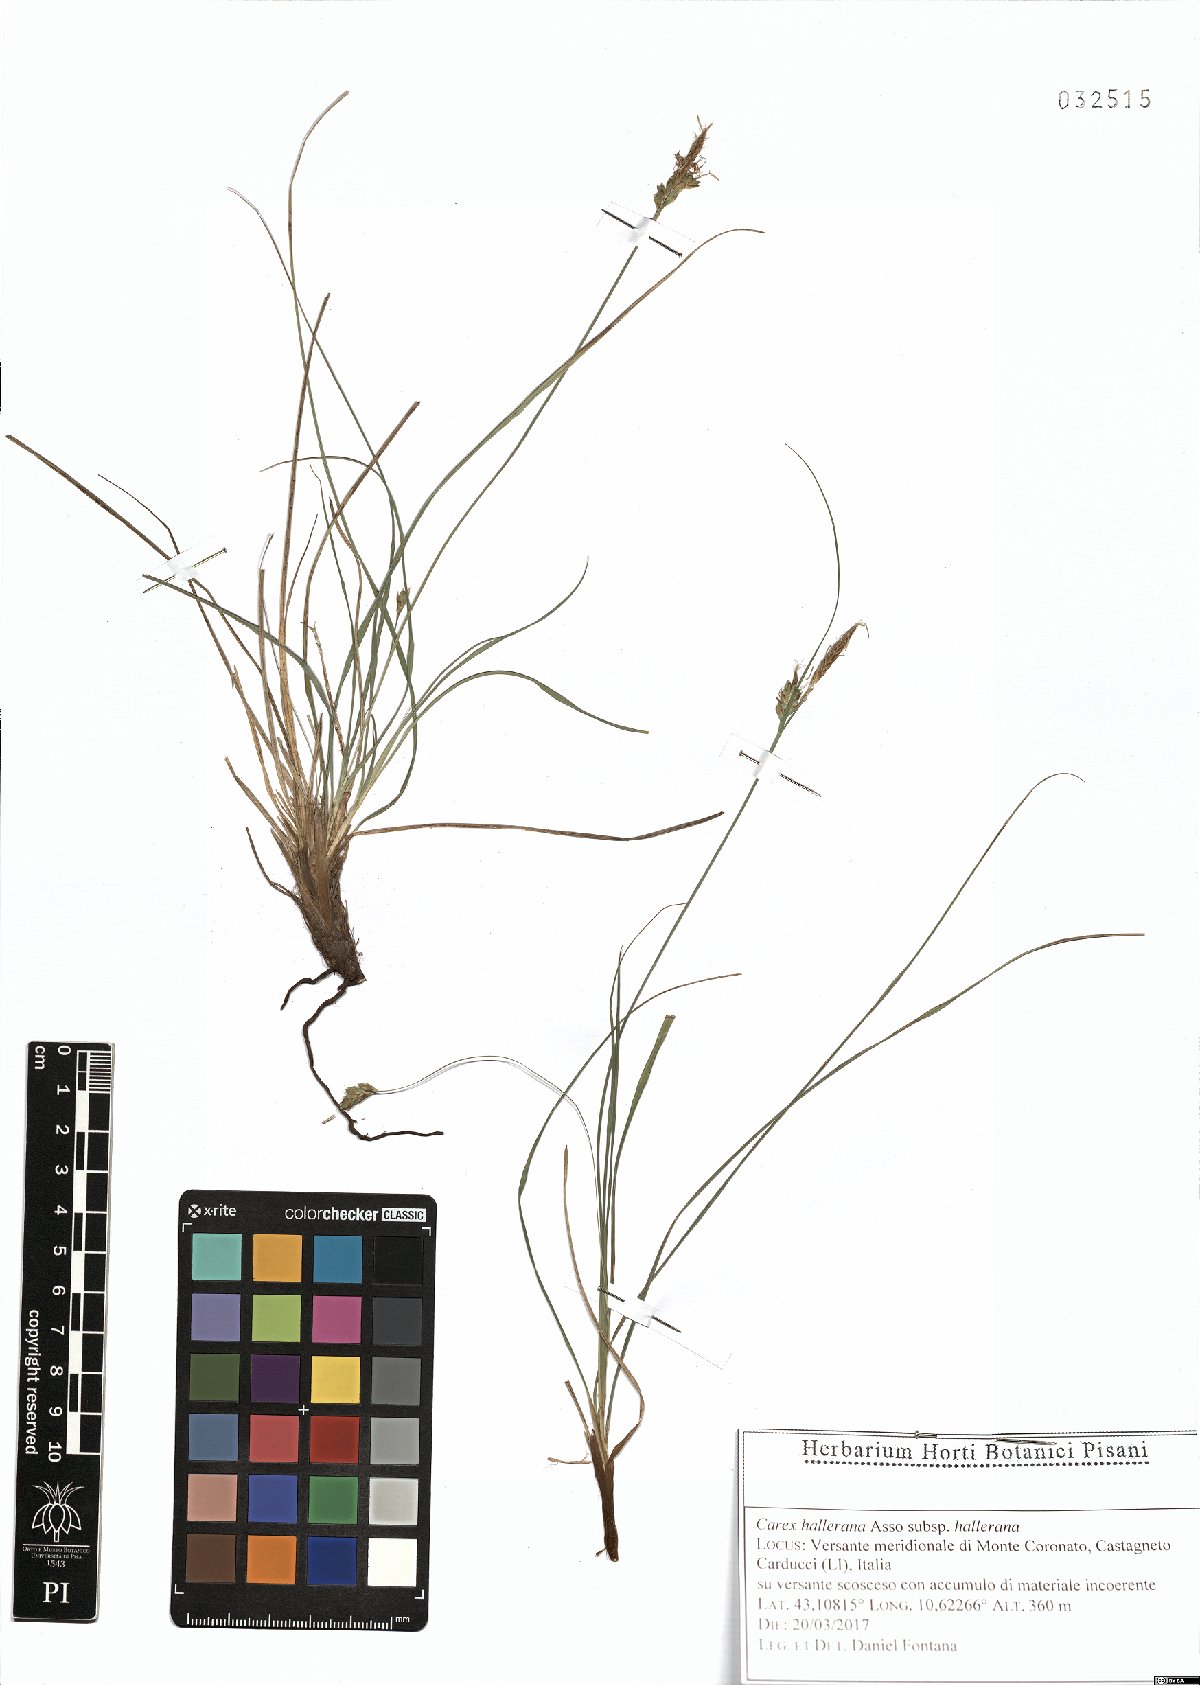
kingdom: Plantae
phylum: Tracheophyta
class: Liliopsida
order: Poales
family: Cyperaceae
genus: Carex
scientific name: Carex halleriana
